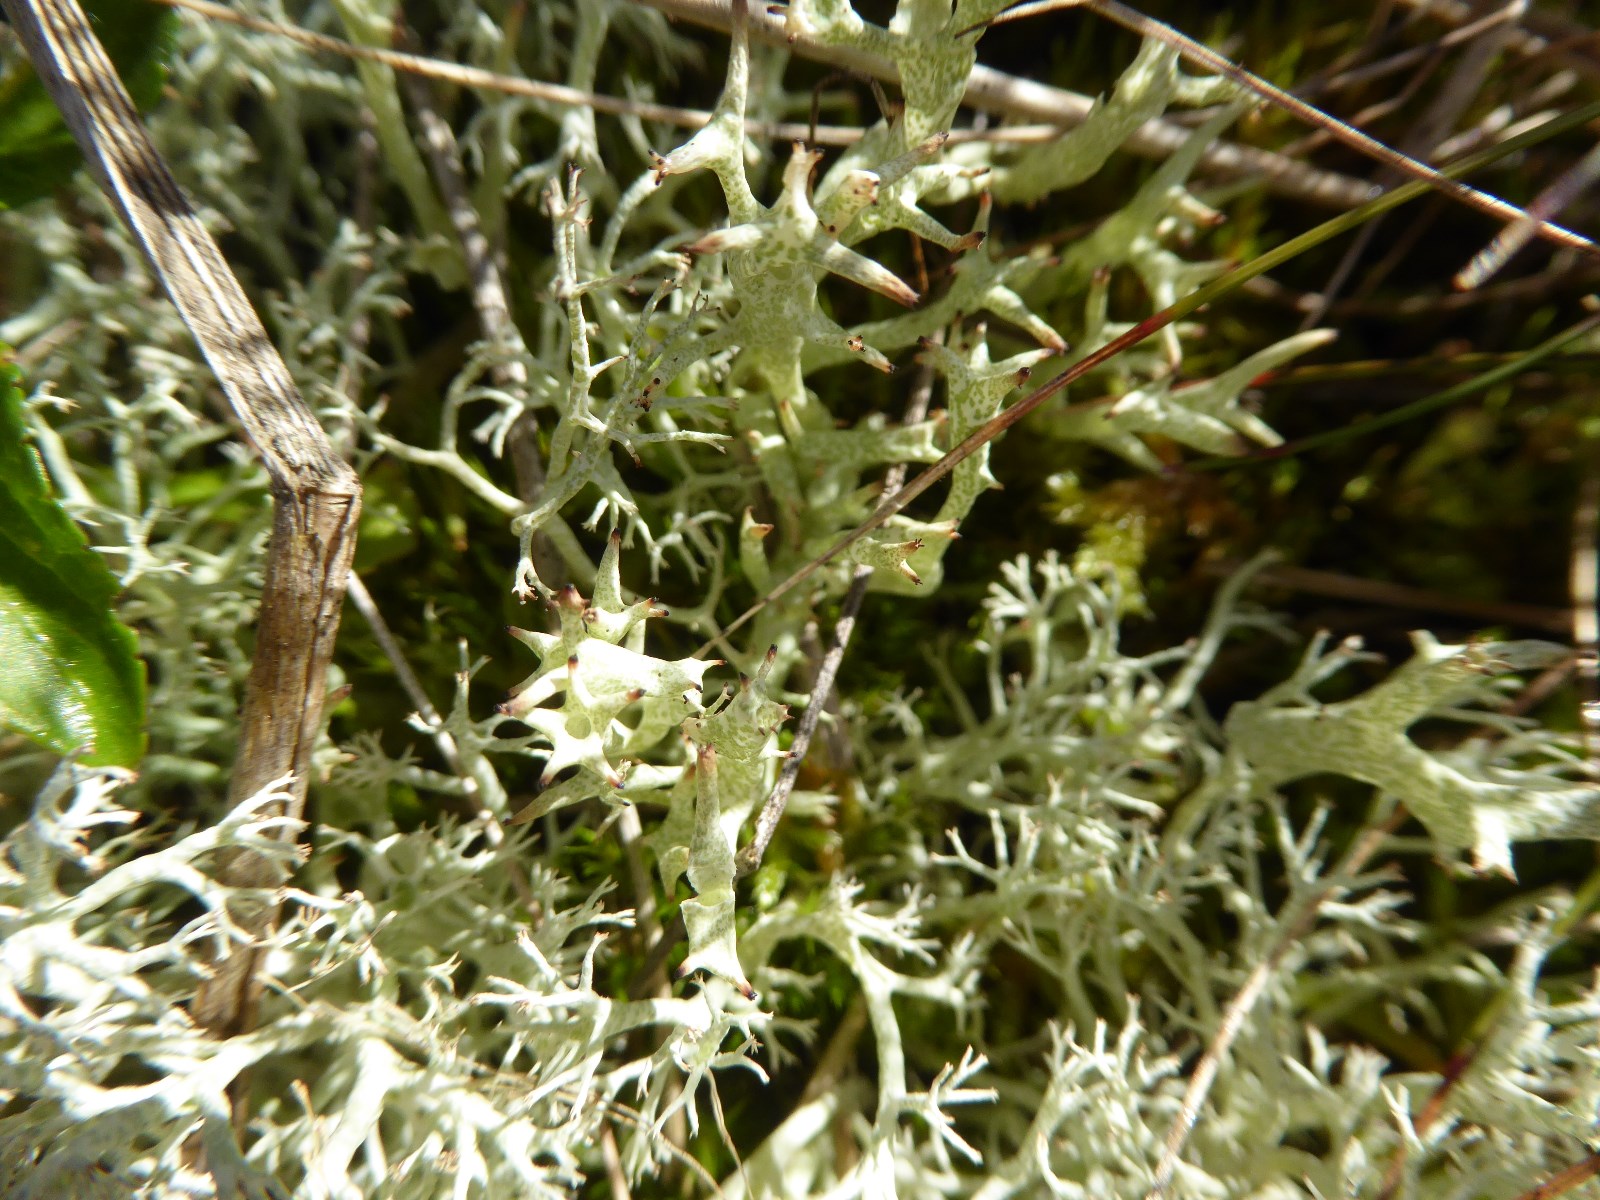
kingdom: Fungi
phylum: Ascomycota
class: Lecanoromycetes
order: Lecanorales
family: Cladoniaceae
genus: Cladonia
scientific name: Cladonia uncialis
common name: pigget bægerlav
